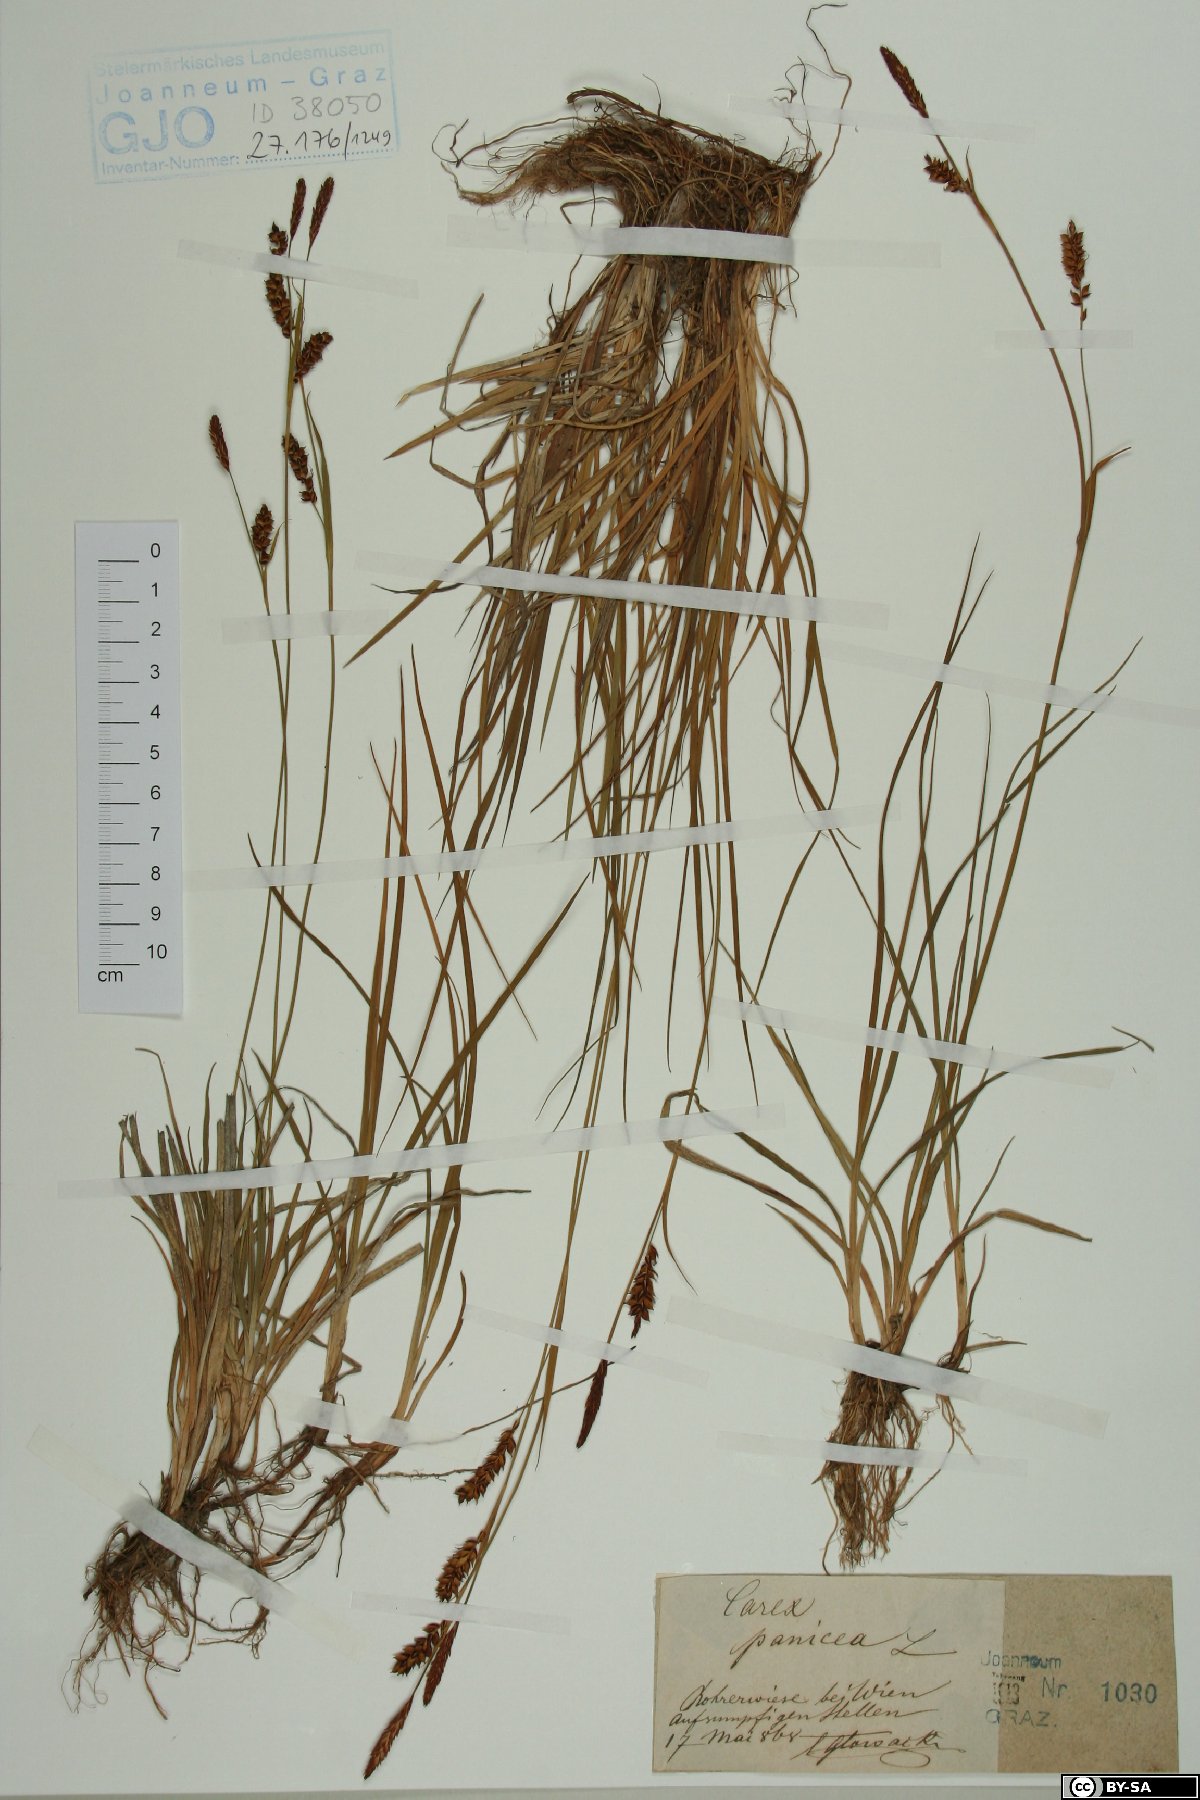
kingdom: Plantae
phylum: Tracheophyta
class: Liliopsida
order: Poales
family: Cyperaceae
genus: Carex
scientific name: Carex panicea
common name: Carnation sedge
